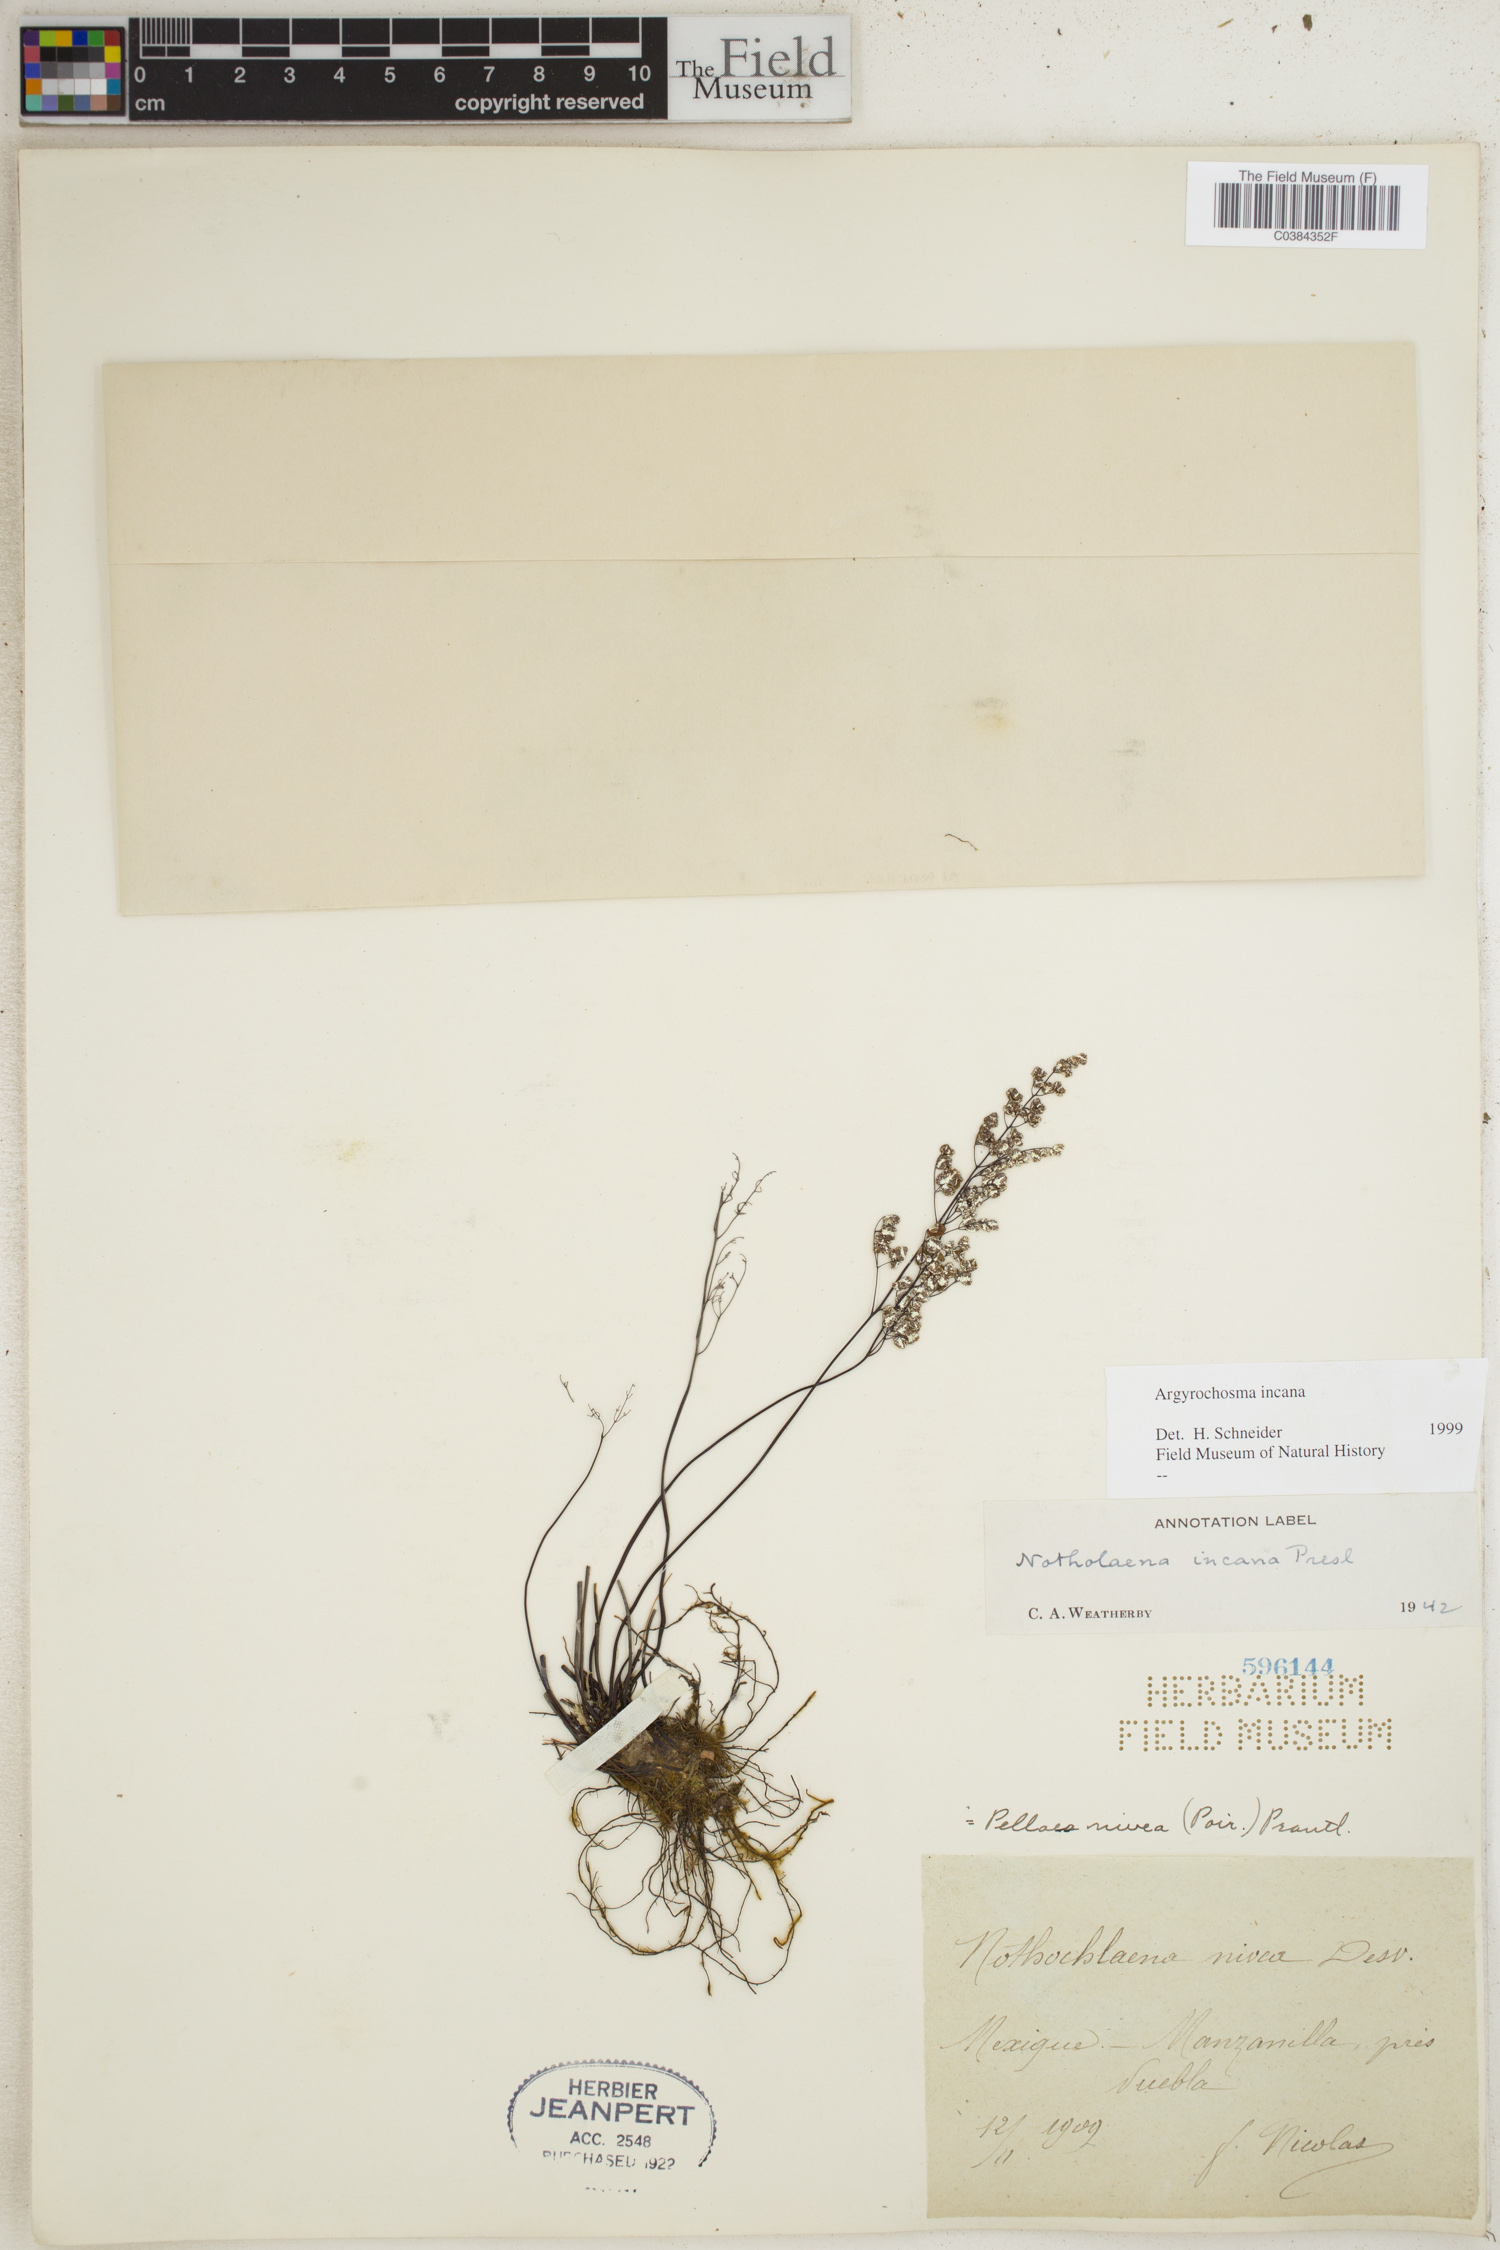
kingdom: Plantae
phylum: Tracheophyta
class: Polypodiopsida
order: Polypodiales
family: Pteridaceae
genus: Argyrochosma
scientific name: Argyrochosma incana
